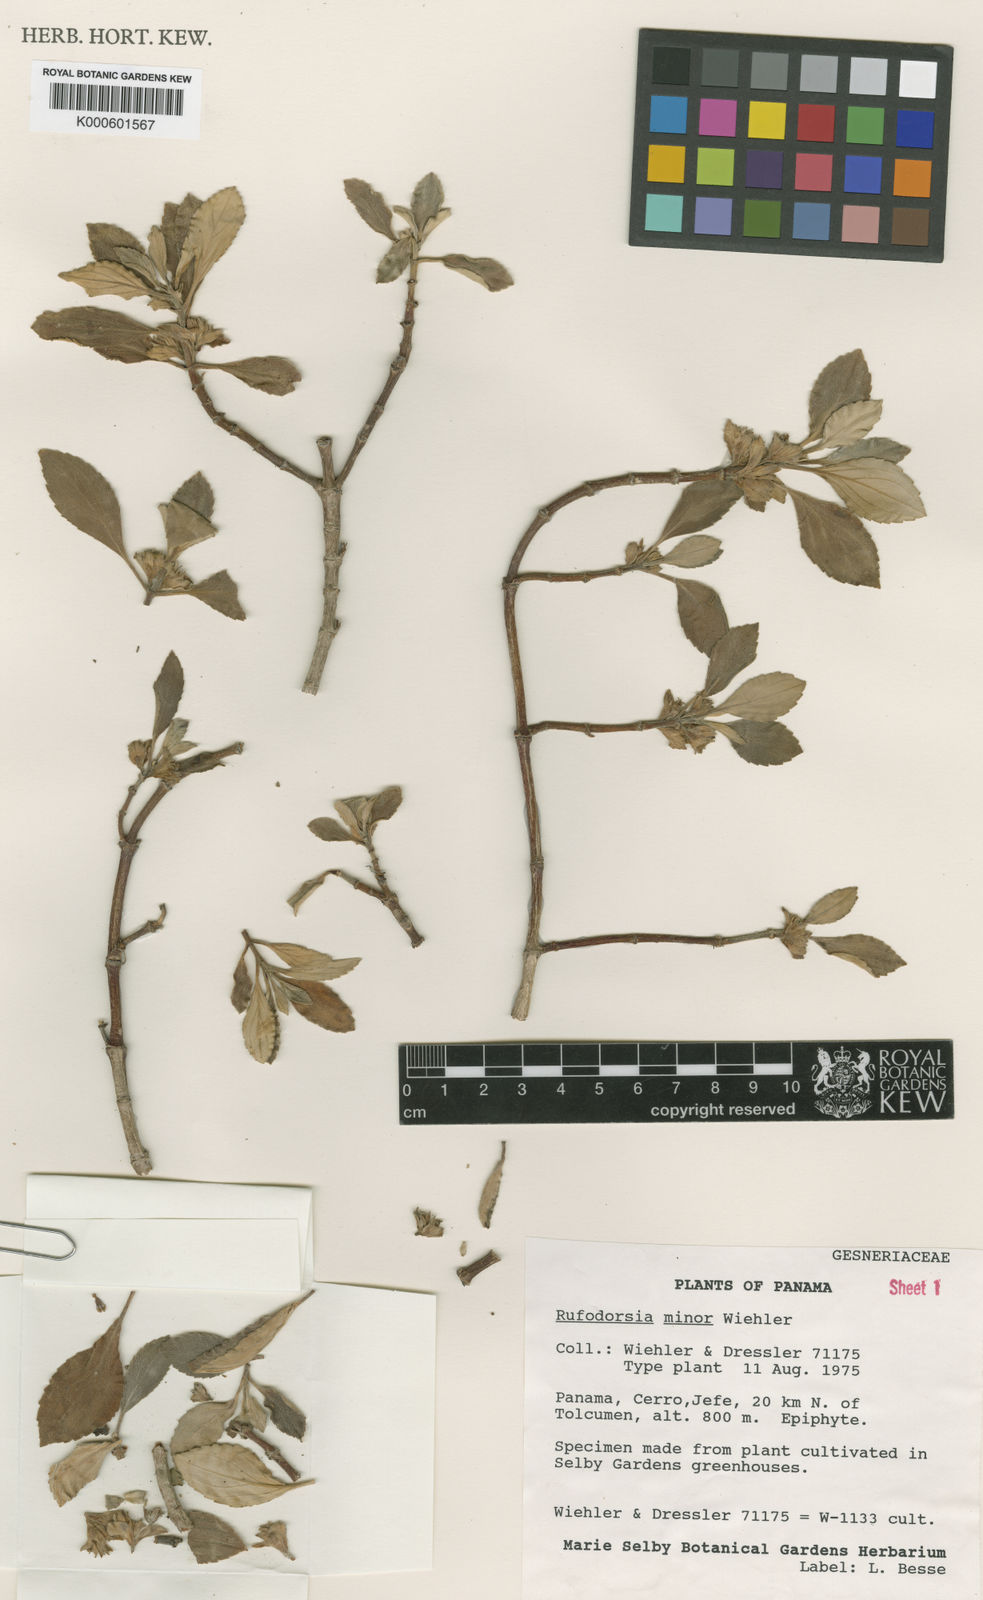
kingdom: Plantae
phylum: Tracheophyta
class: Magnoliopsida
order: Lamiales
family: Gesneriaceae
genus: Rufodorsia
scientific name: Rufodorsia minor
